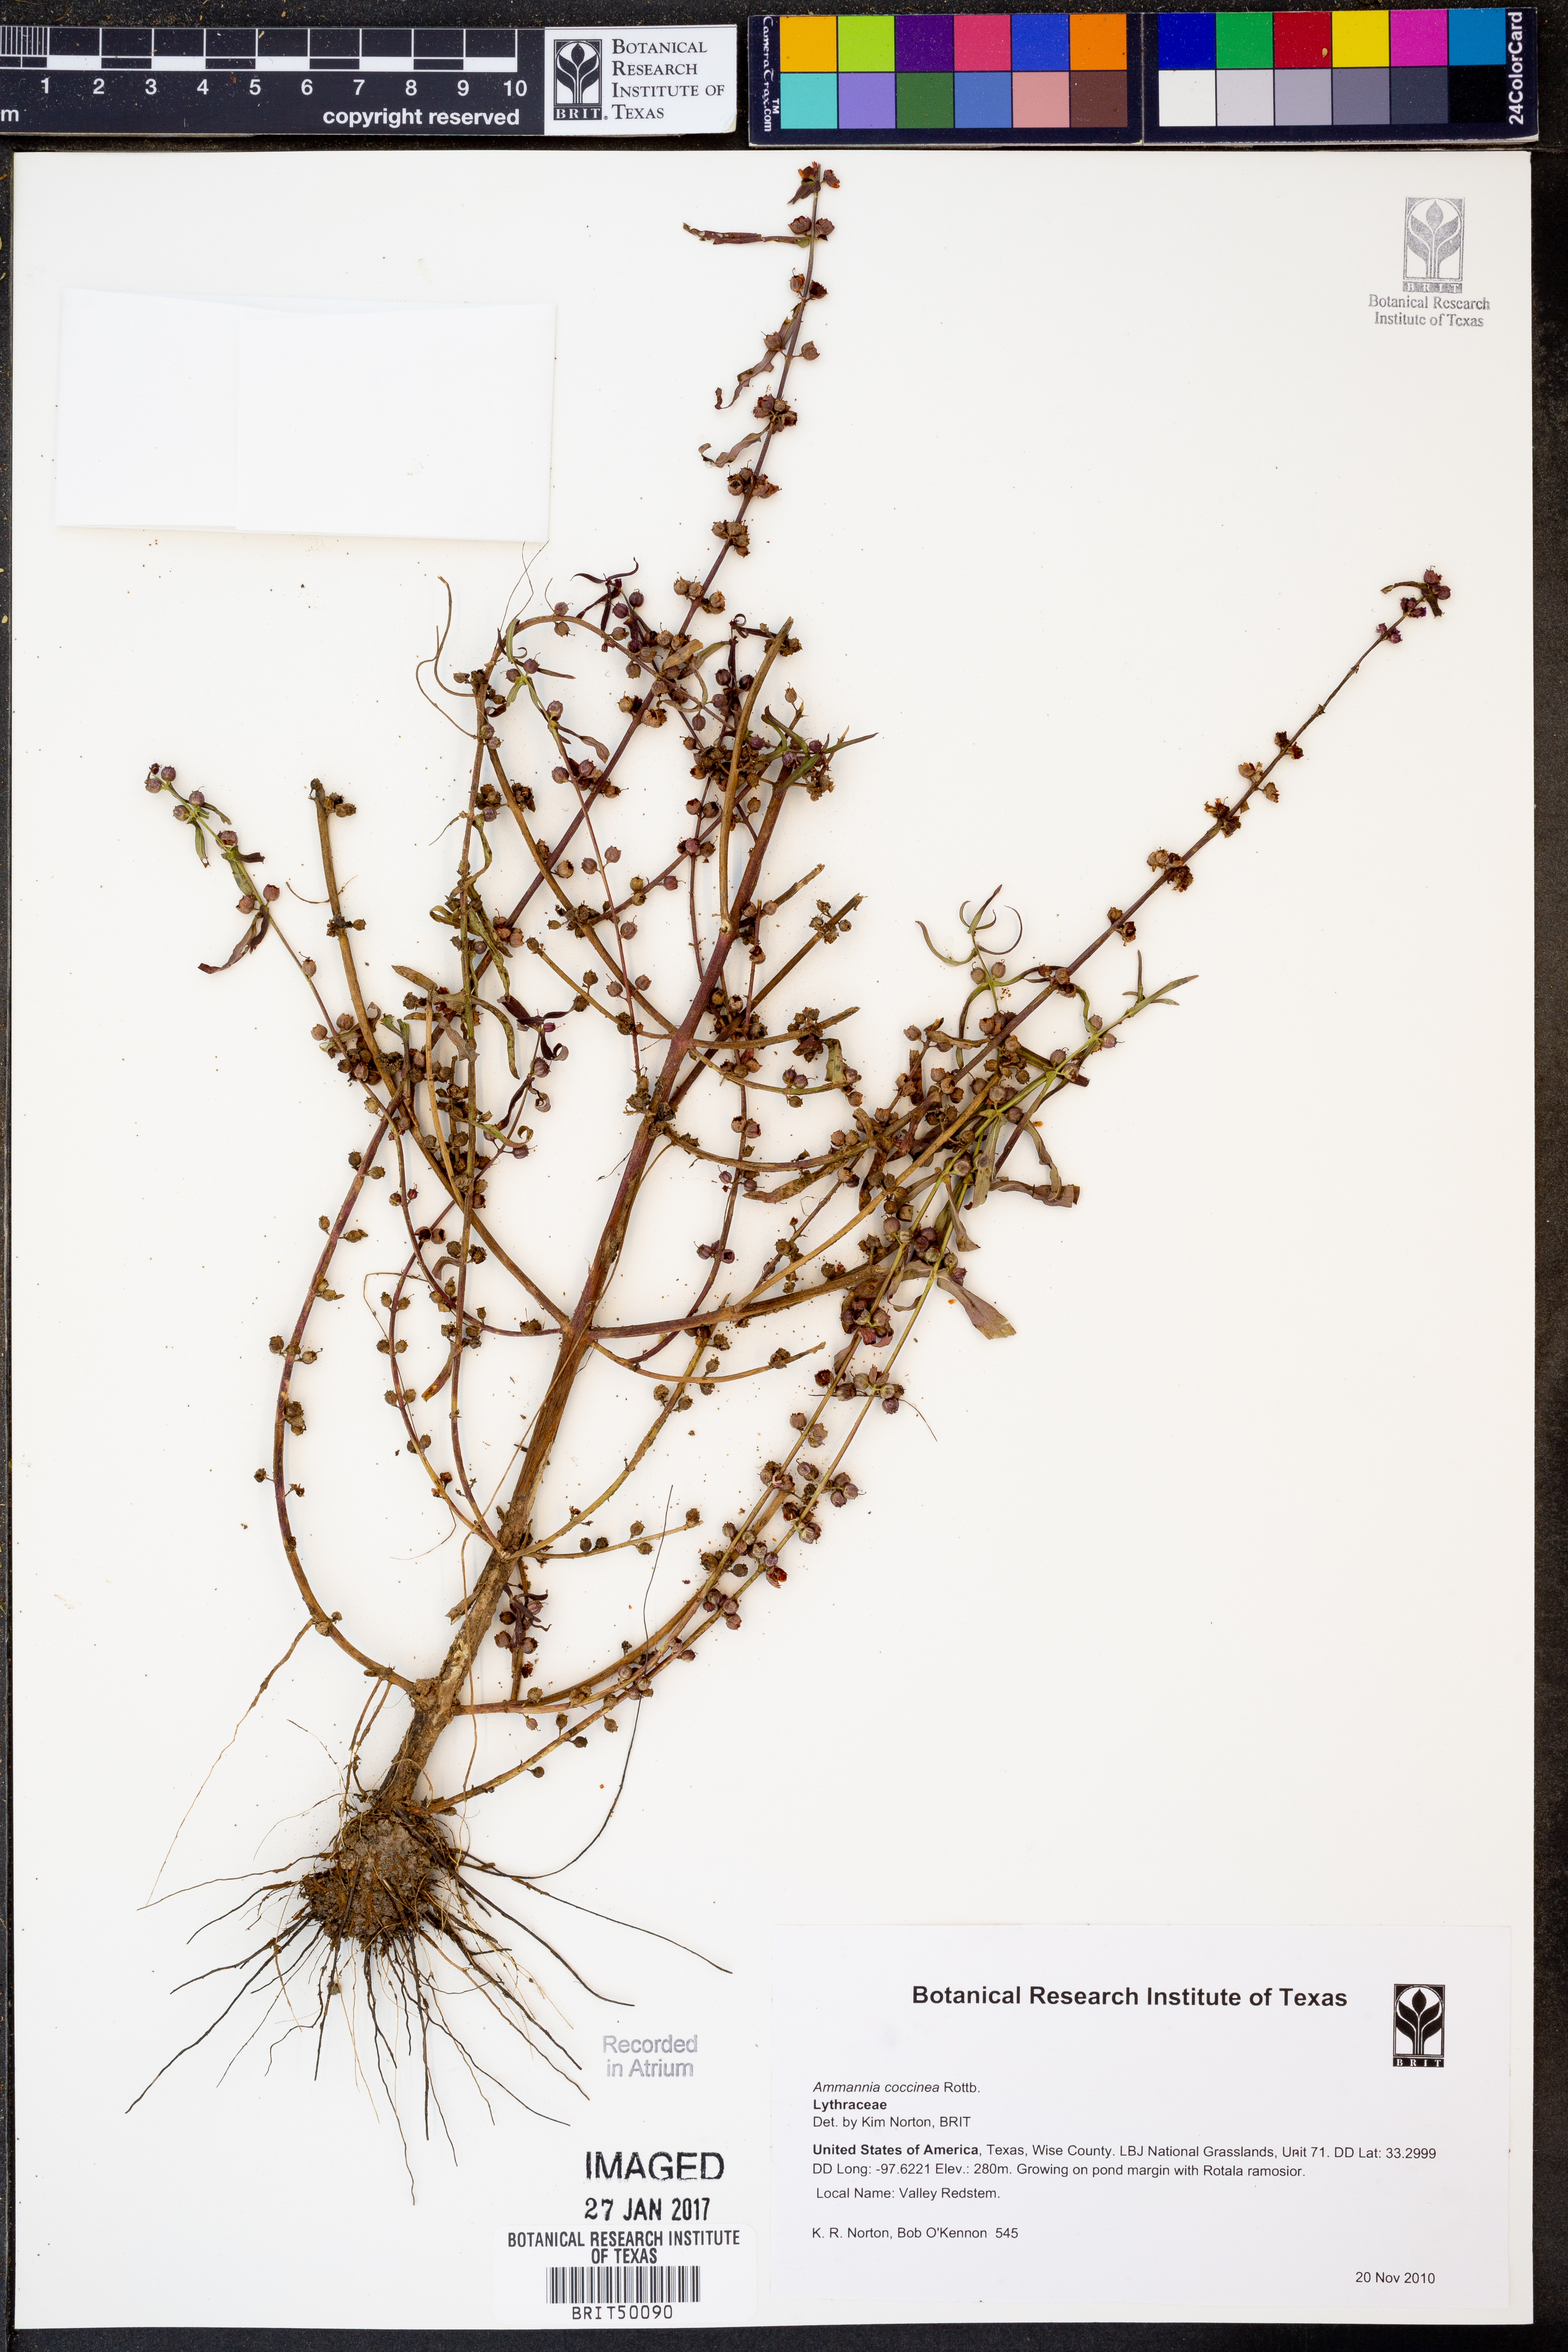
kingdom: Plantae
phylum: Tracheophyta
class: Magnoliopsida
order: Myrtales
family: Lythraceae
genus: Ammannia
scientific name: Ammannia coccinea
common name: Valley redstem
